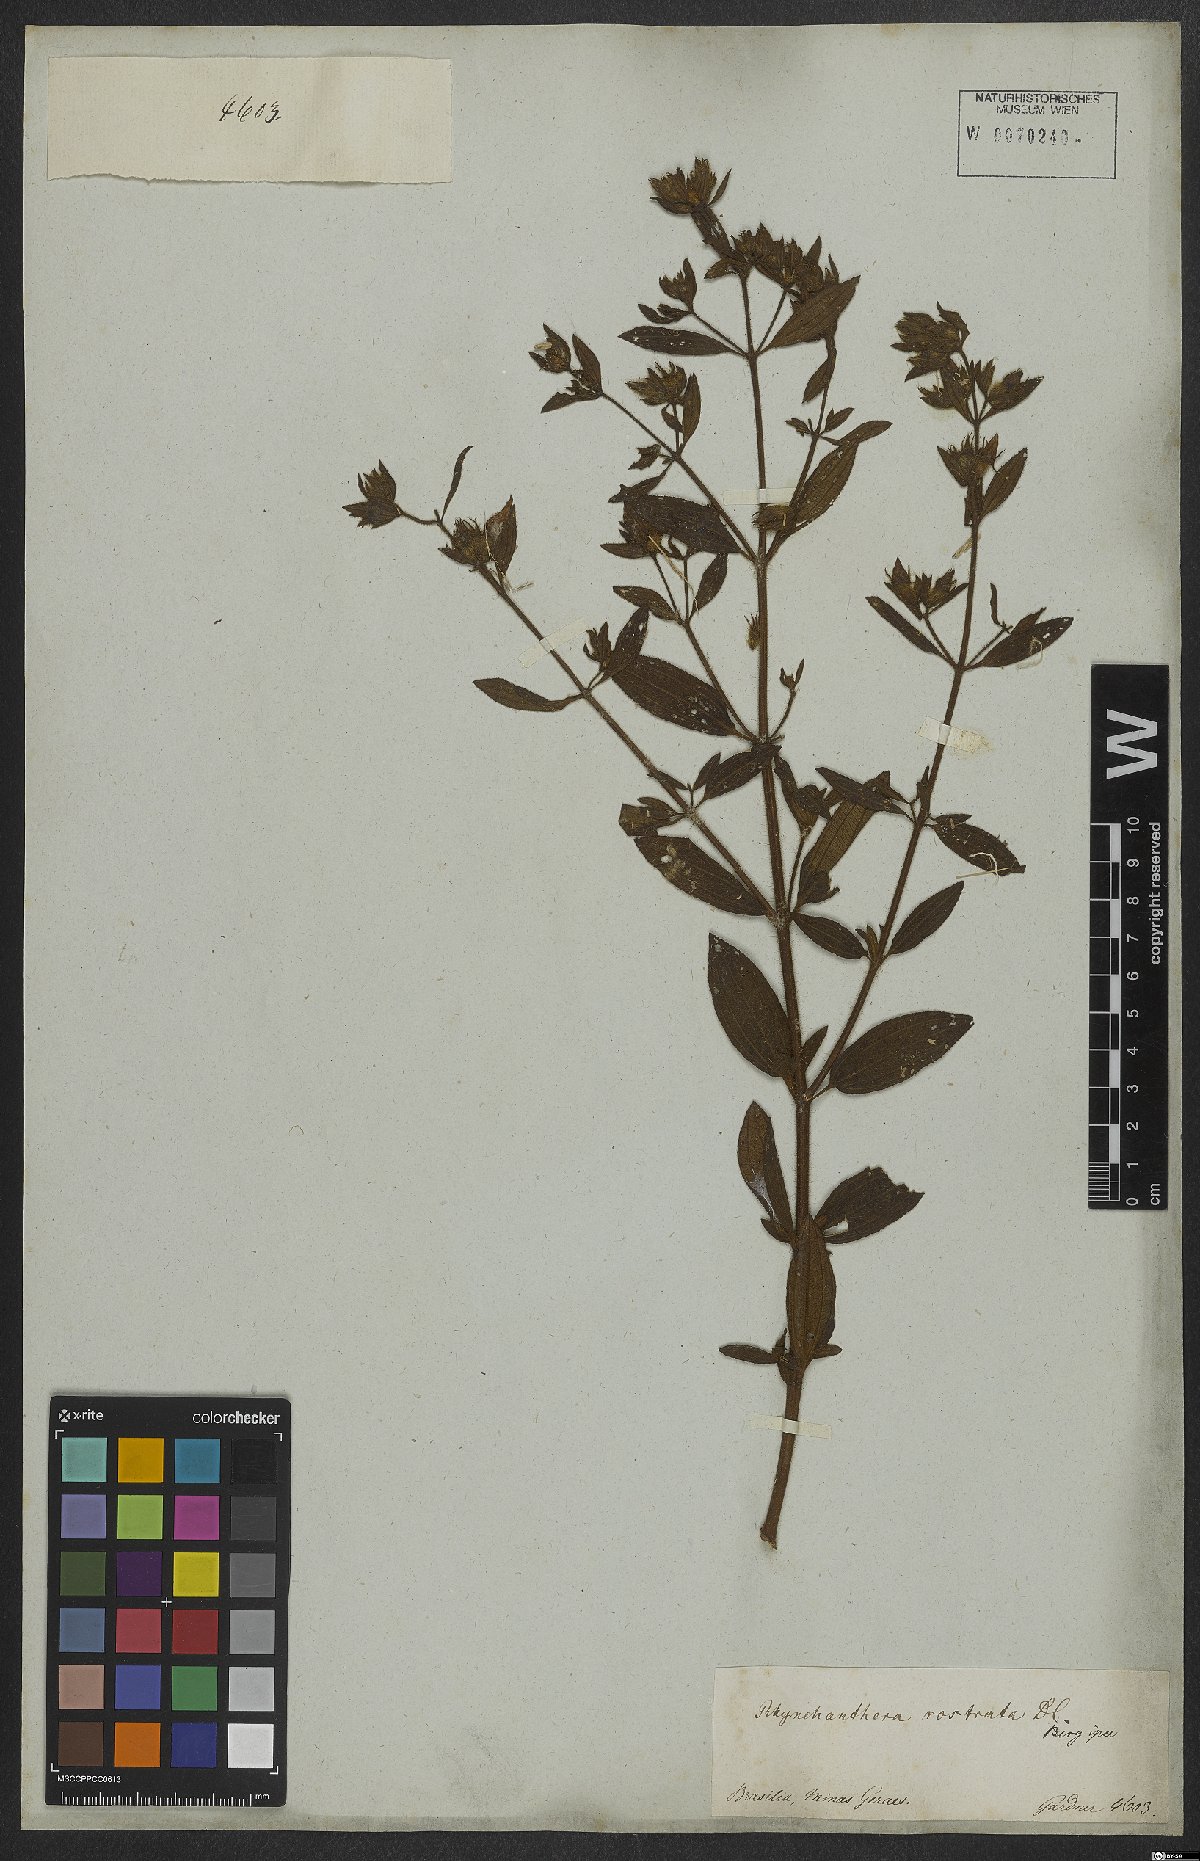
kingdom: Plantae
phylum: Tracheophyta
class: Magnoliopsida
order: Myrtales
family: Melastomataceae
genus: Rhynchanthera
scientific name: Rhynchanthera grandiflora
